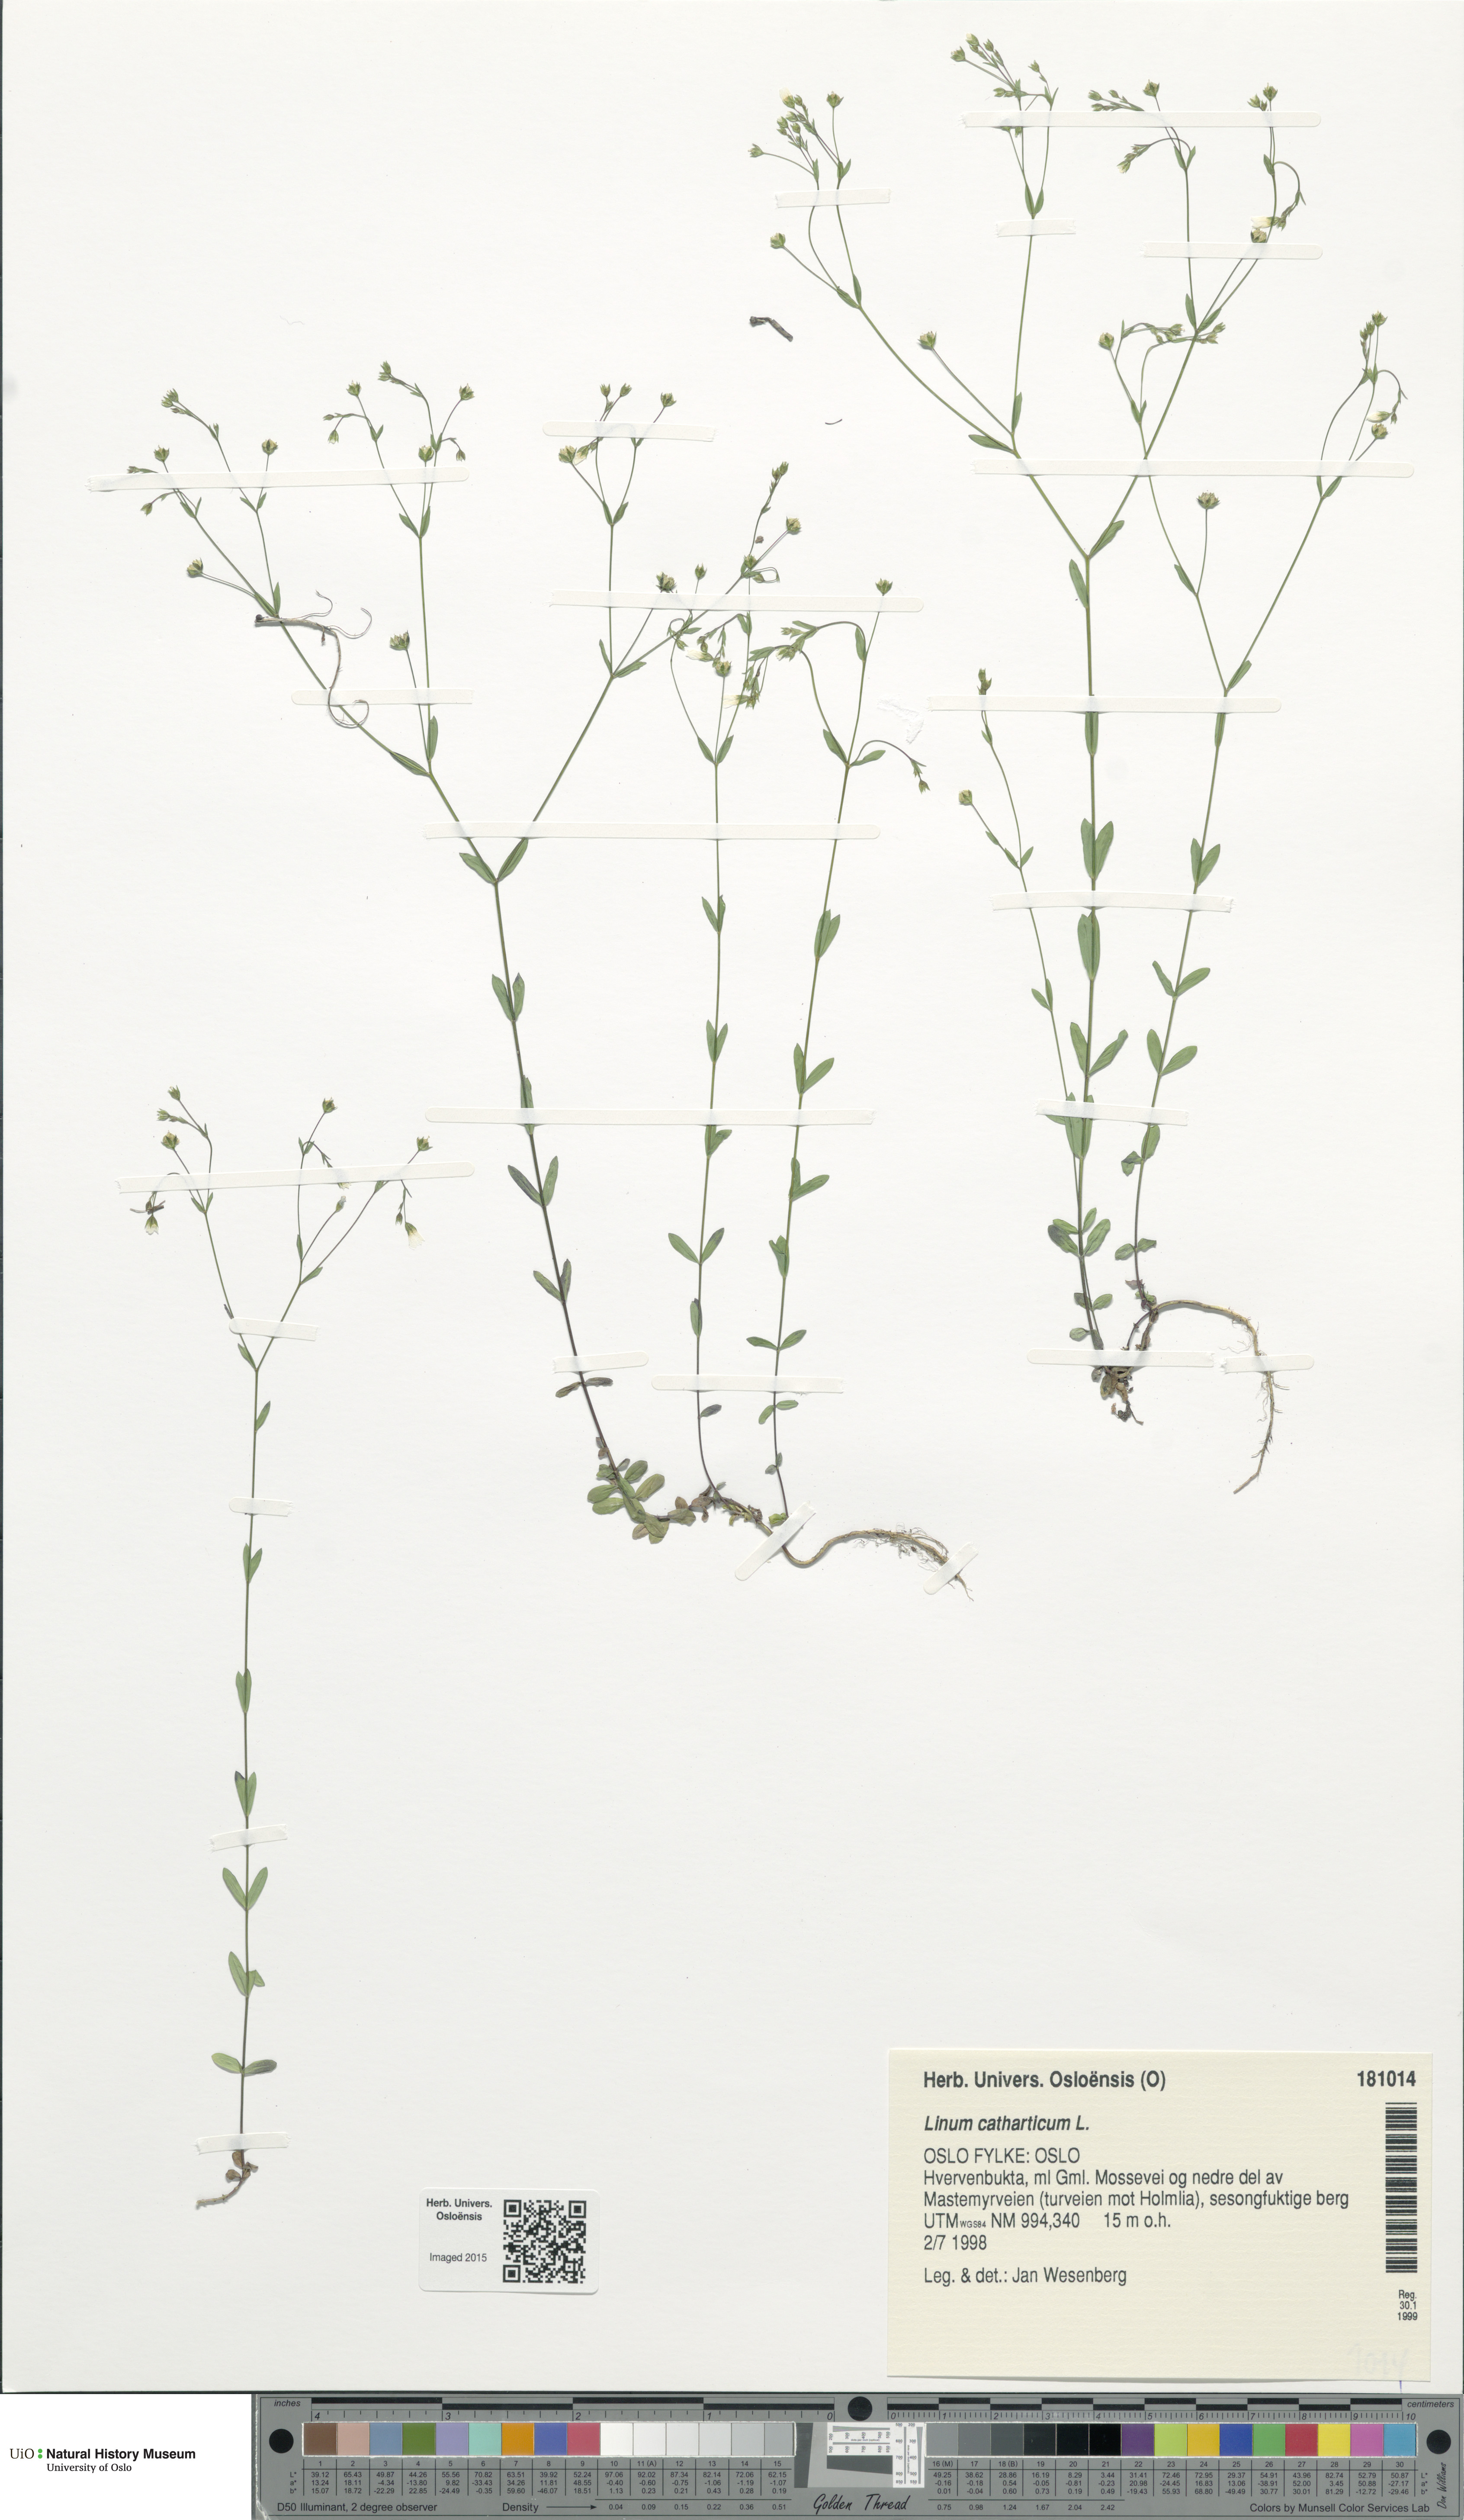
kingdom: Plantae
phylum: Tracheophyta
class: Magnoliopsida
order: Malpighiales
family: Linaceae
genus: Linum
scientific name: Linum catharticum
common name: Fairy flax
